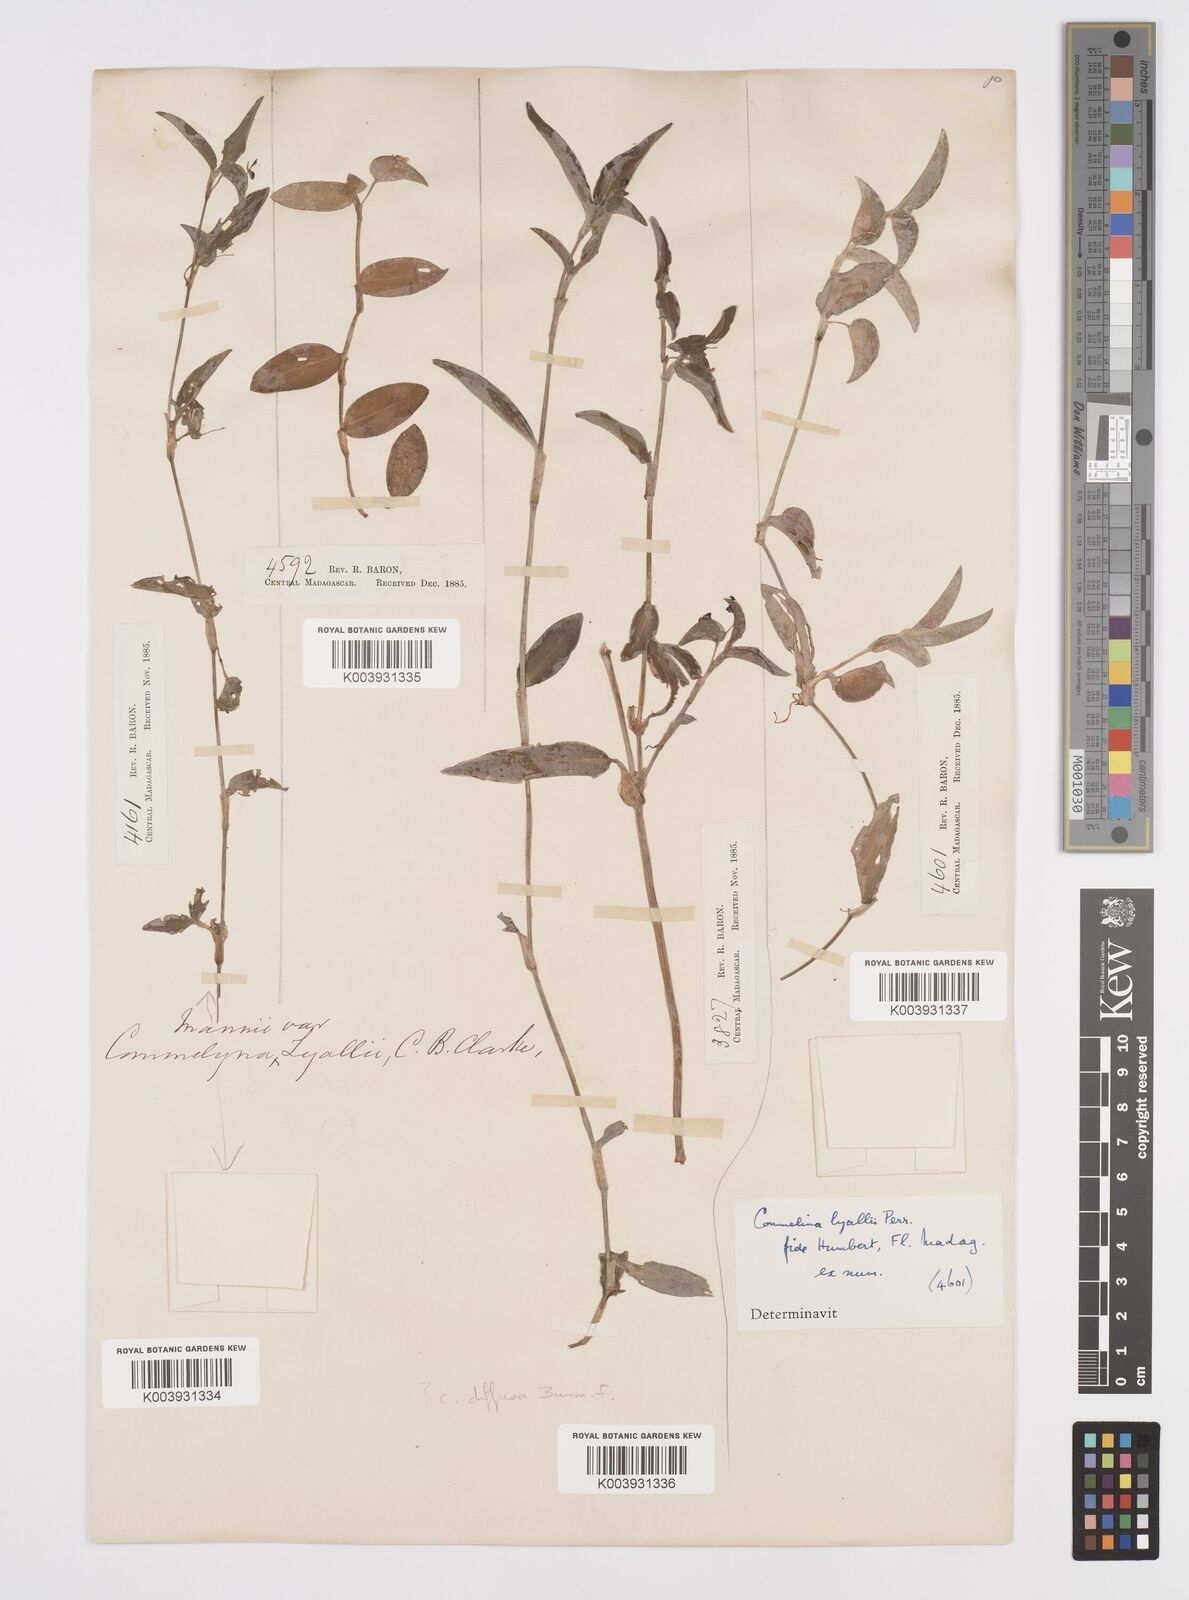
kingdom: Plantae
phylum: Tracheophyta
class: Liliopsida
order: Commelinales
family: Commelinaceae
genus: Commelina
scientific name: Commelina africana
